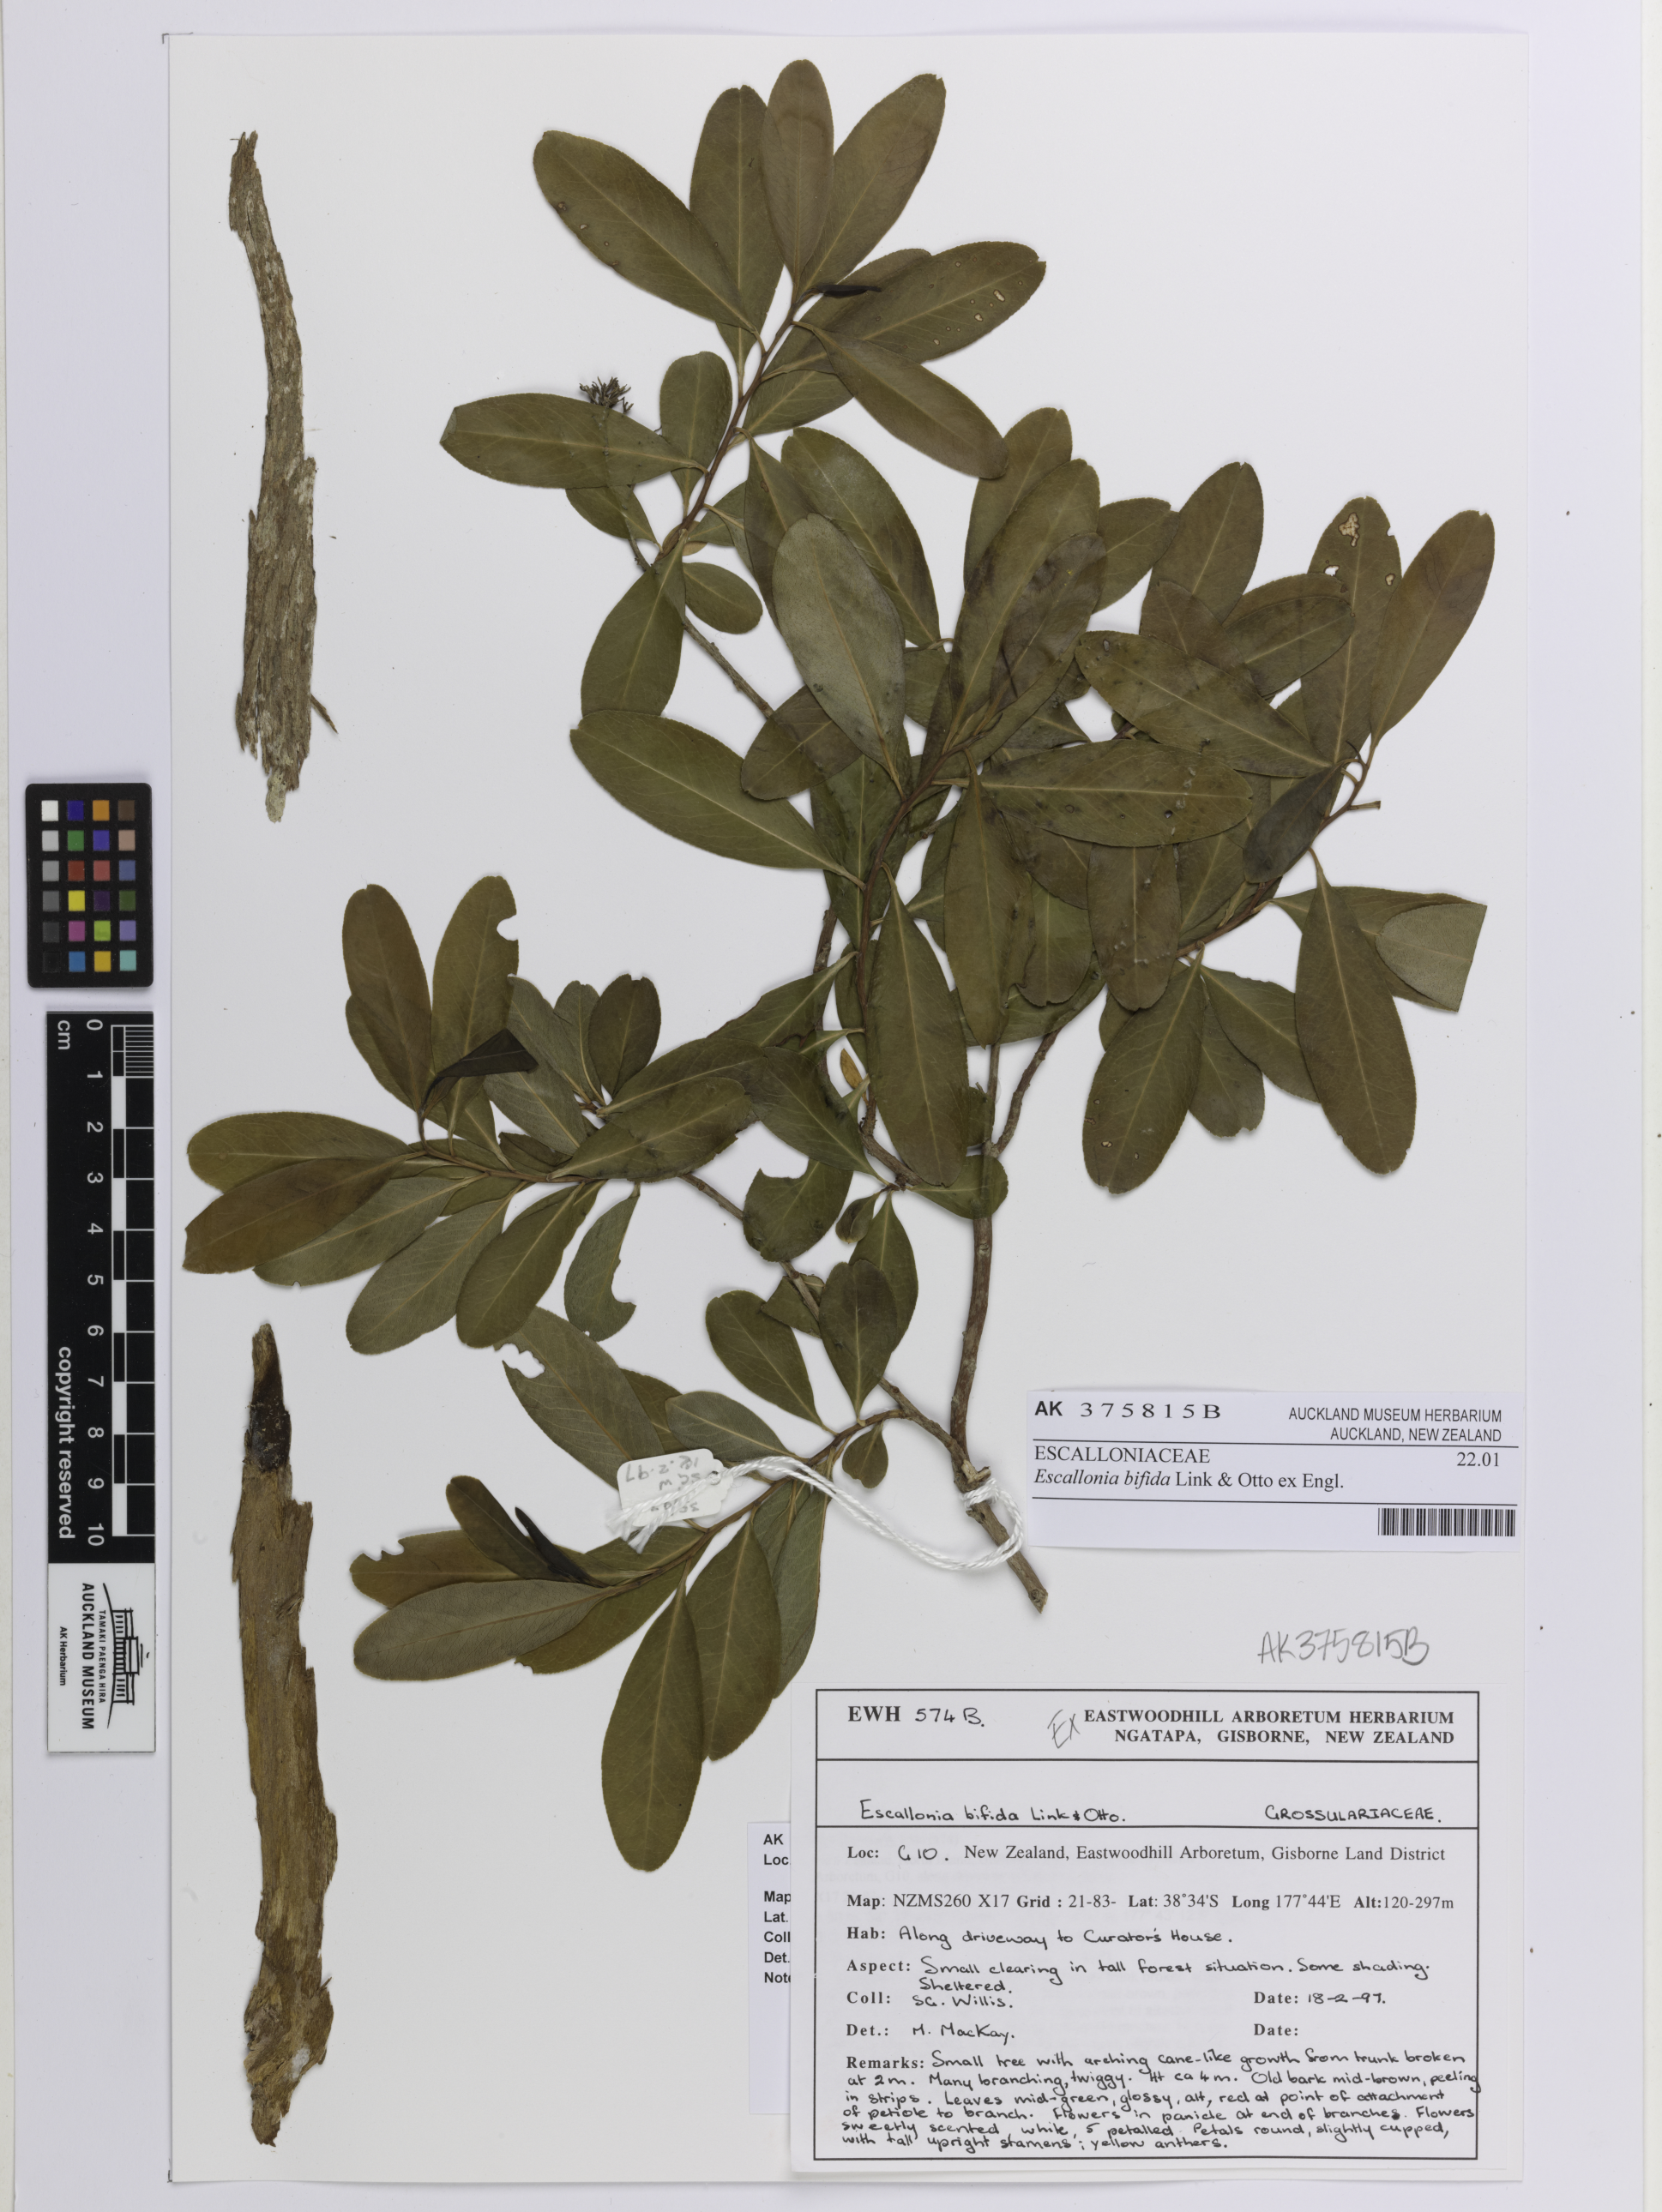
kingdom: Plantae
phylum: Tracheophyta
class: Magnoliopsida
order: Escalloniales
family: Escalloniaceae
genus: Escallonia
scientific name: Escallonia bifida
